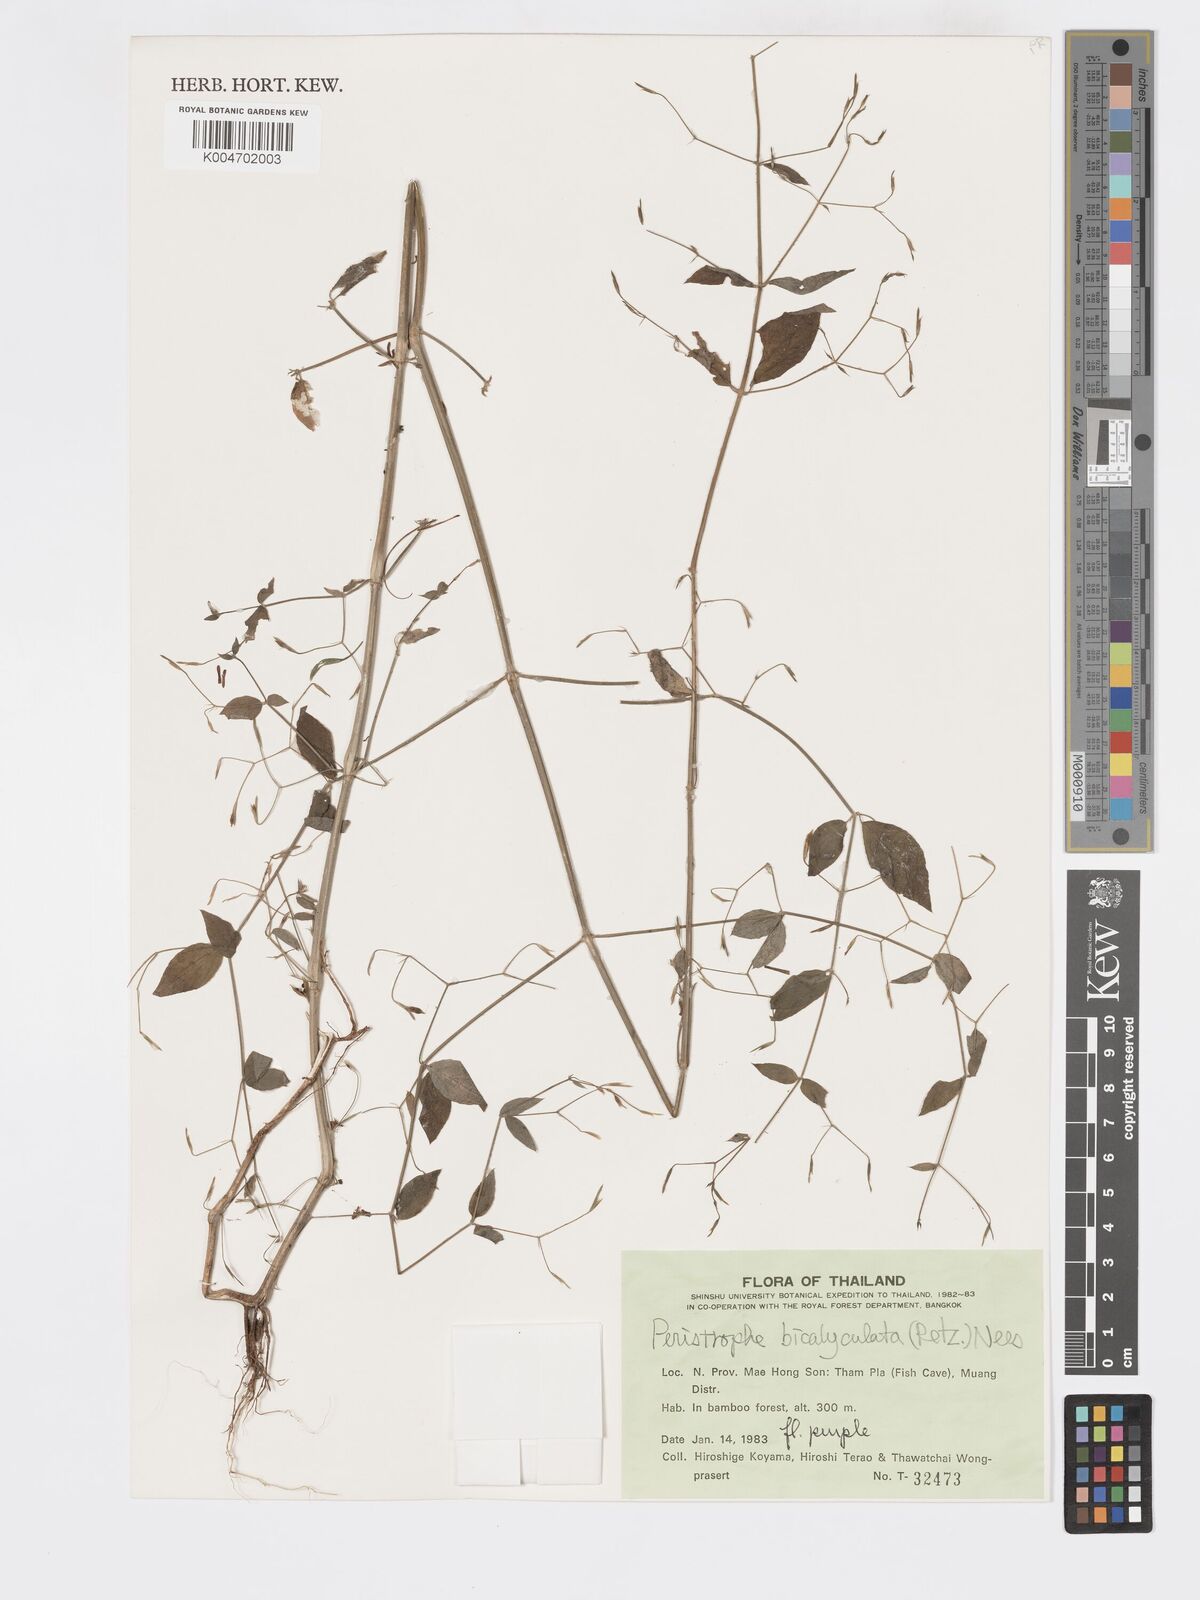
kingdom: Plantae
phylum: Tracheophyta
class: Magnoliopsida
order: Lamiales
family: Acanthaceae
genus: Dicliptera
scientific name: Dicliptera paniculata
